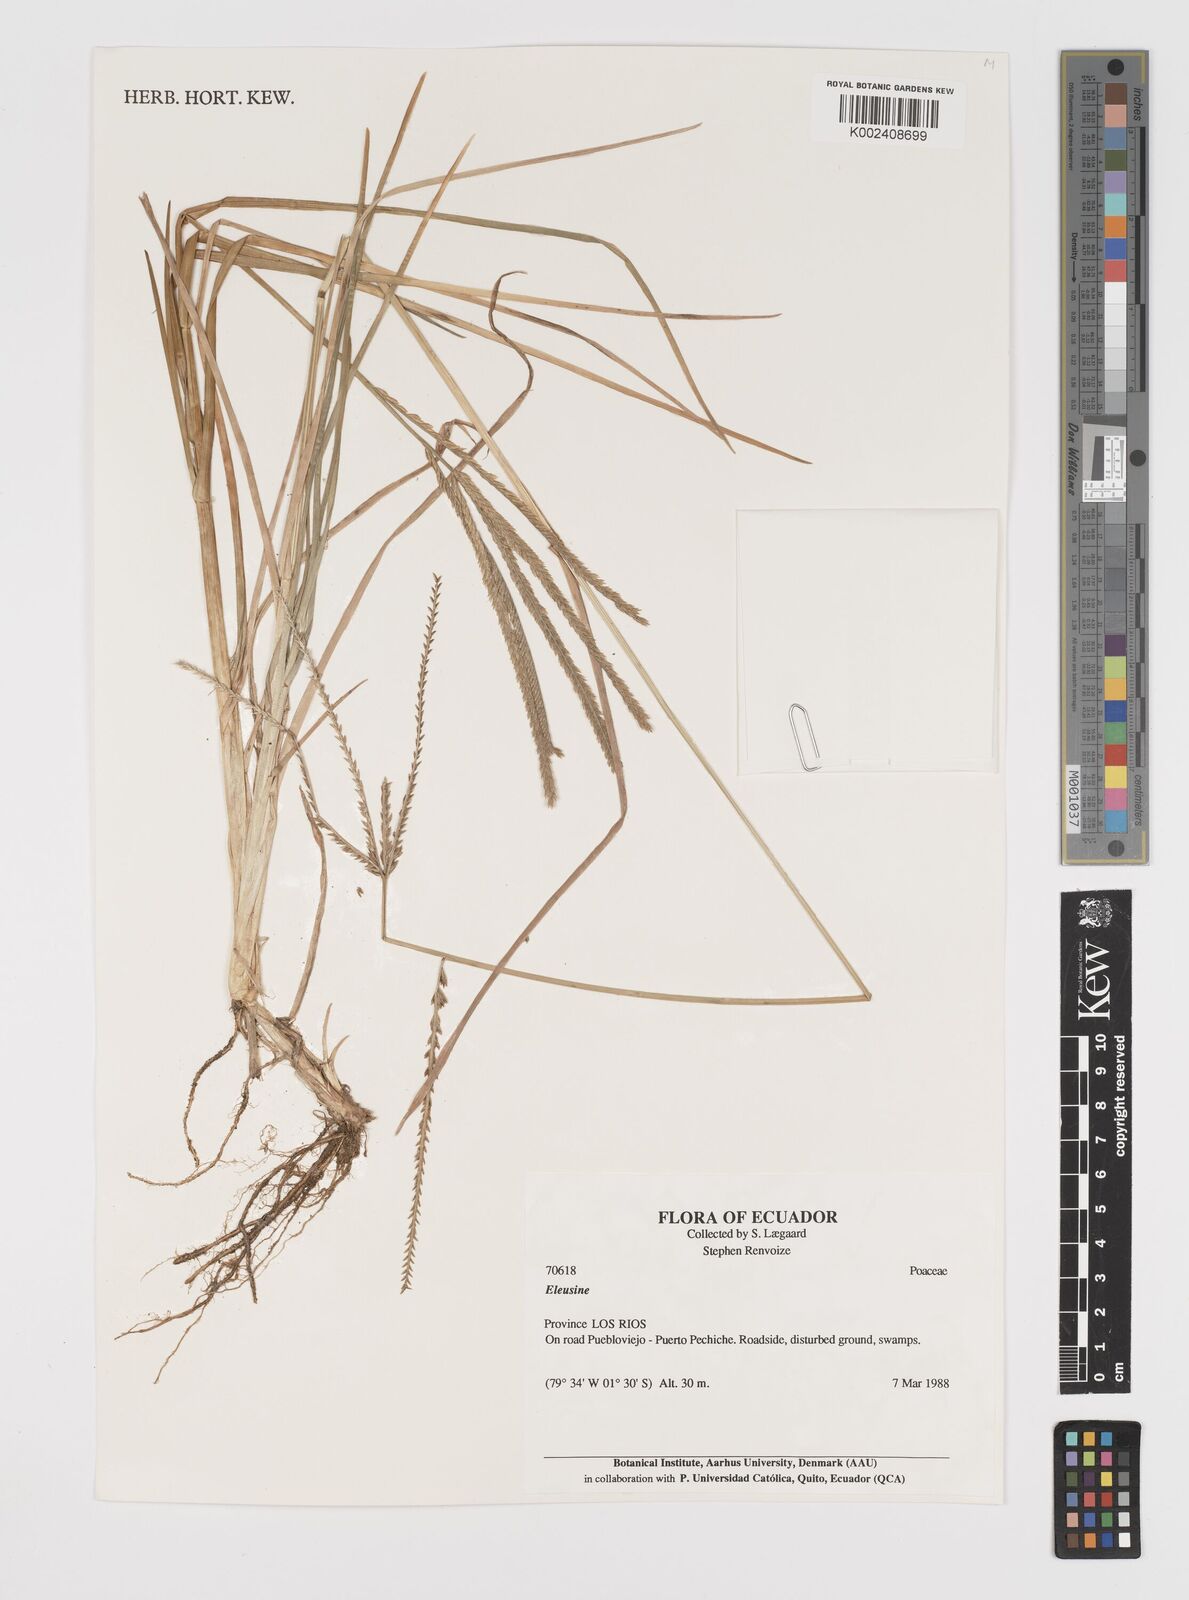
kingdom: Plantae
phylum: Tracheophyta
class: Liliopsida
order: Poales
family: Poaceae
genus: Eleusine
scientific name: Eleusine indica
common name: Yard-grass
